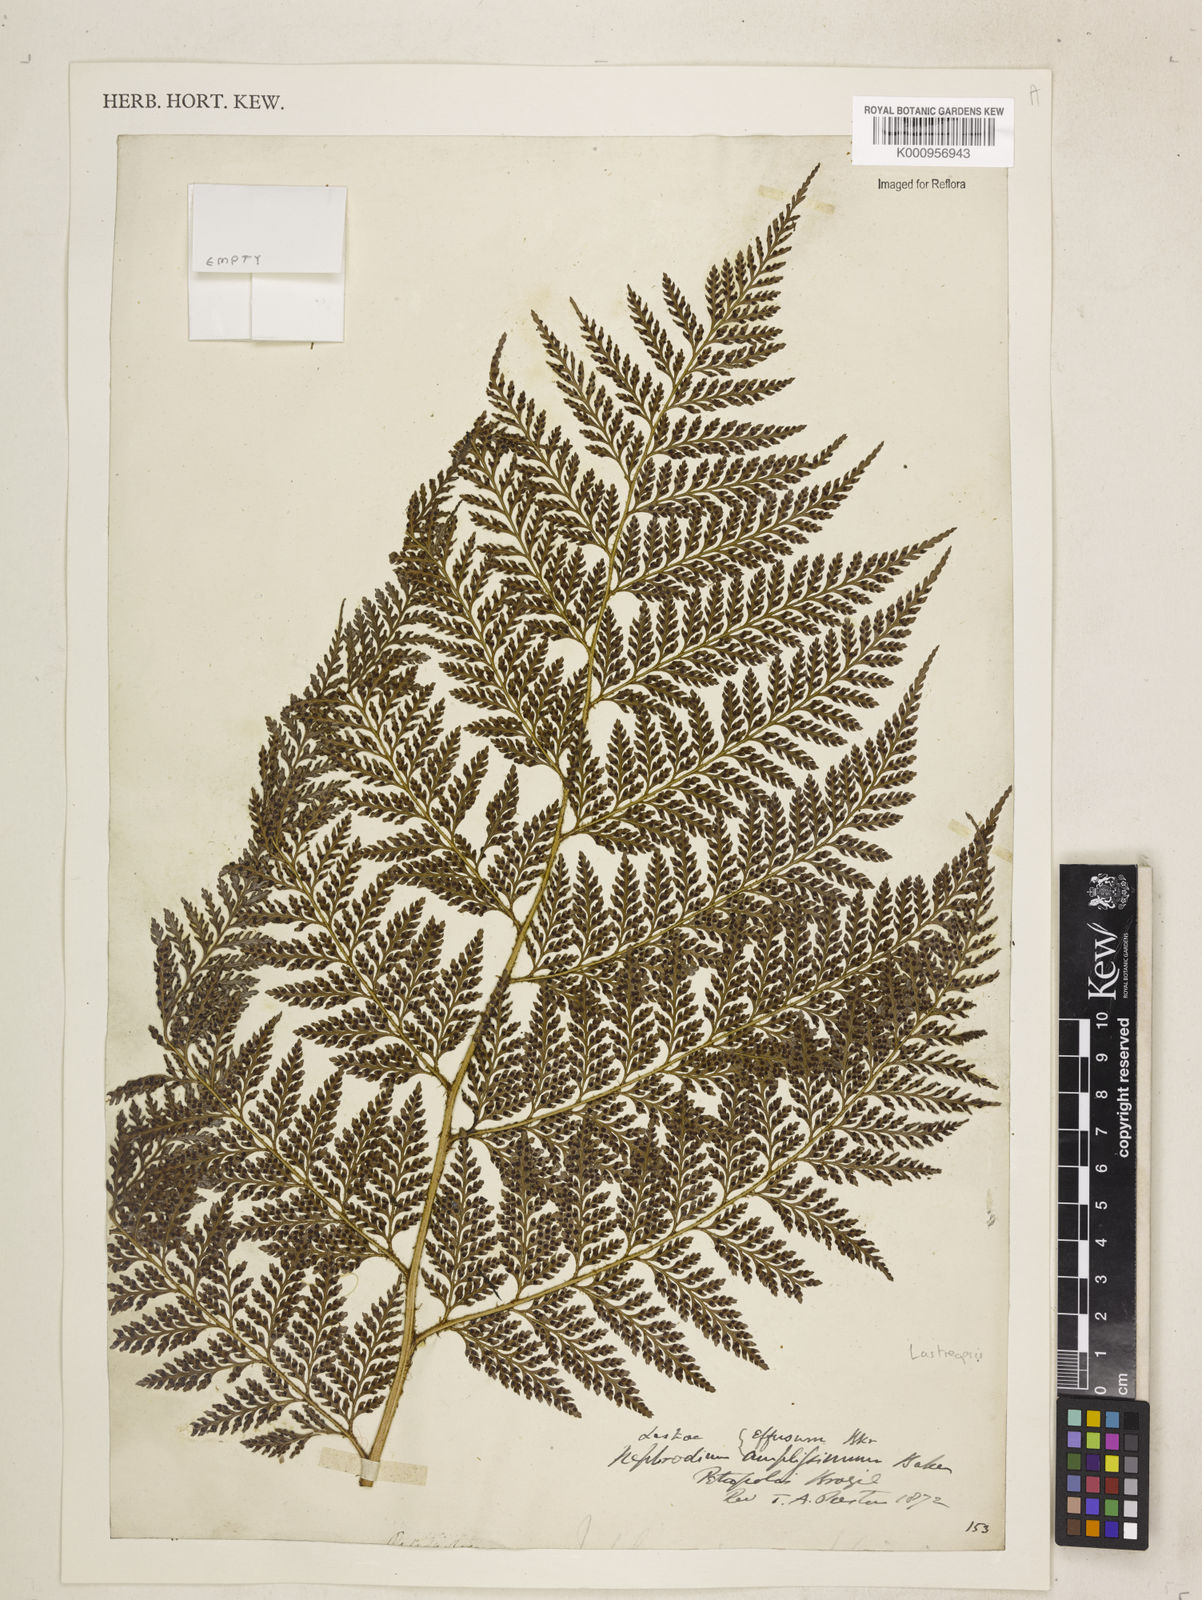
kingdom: Plantae
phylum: Tracheophyta
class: Polypodiopsida
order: Polypodiales
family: Dryopteridaceae
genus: Lastreopsis
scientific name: Lastreopsis amplissima
